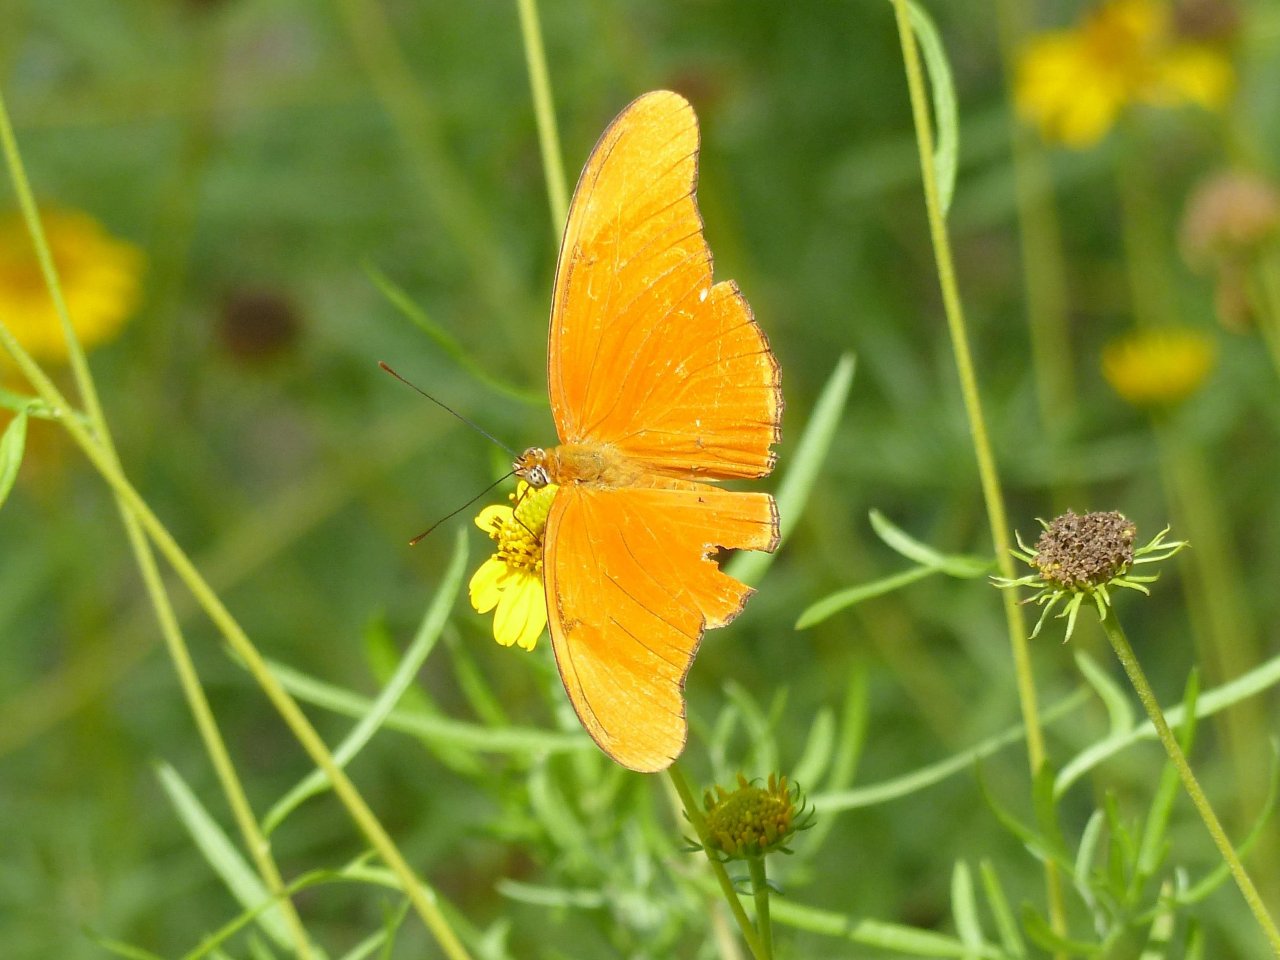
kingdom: Animalia
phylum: Arthropoda
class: Insecta
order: Lepidoptera
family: Nymphalidae
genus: Dryas
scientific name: Dryas iulia
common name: Julia
